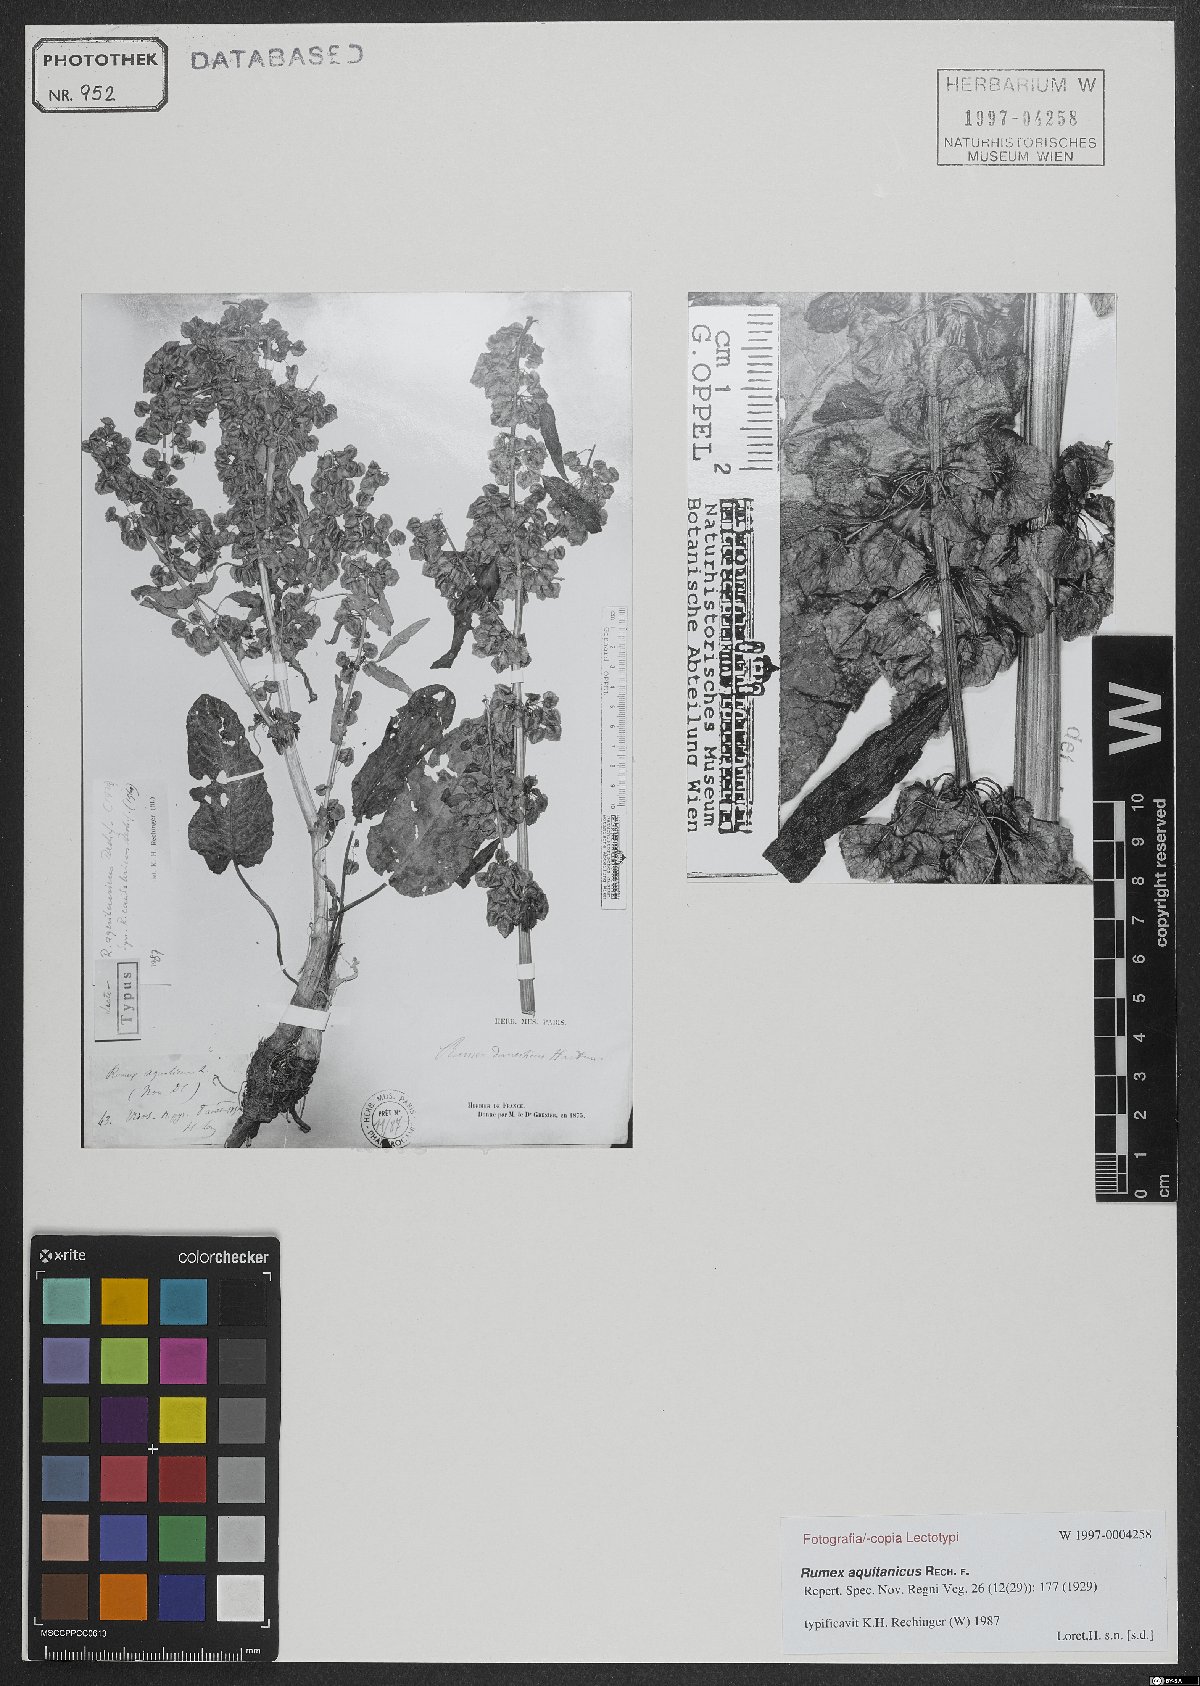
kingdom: Plantae
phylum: Tracheophyta
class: Magnoliopsida
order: Caryophyllales
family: Polygonaceae
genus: Rumex
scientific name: Rumex aquitanicus
